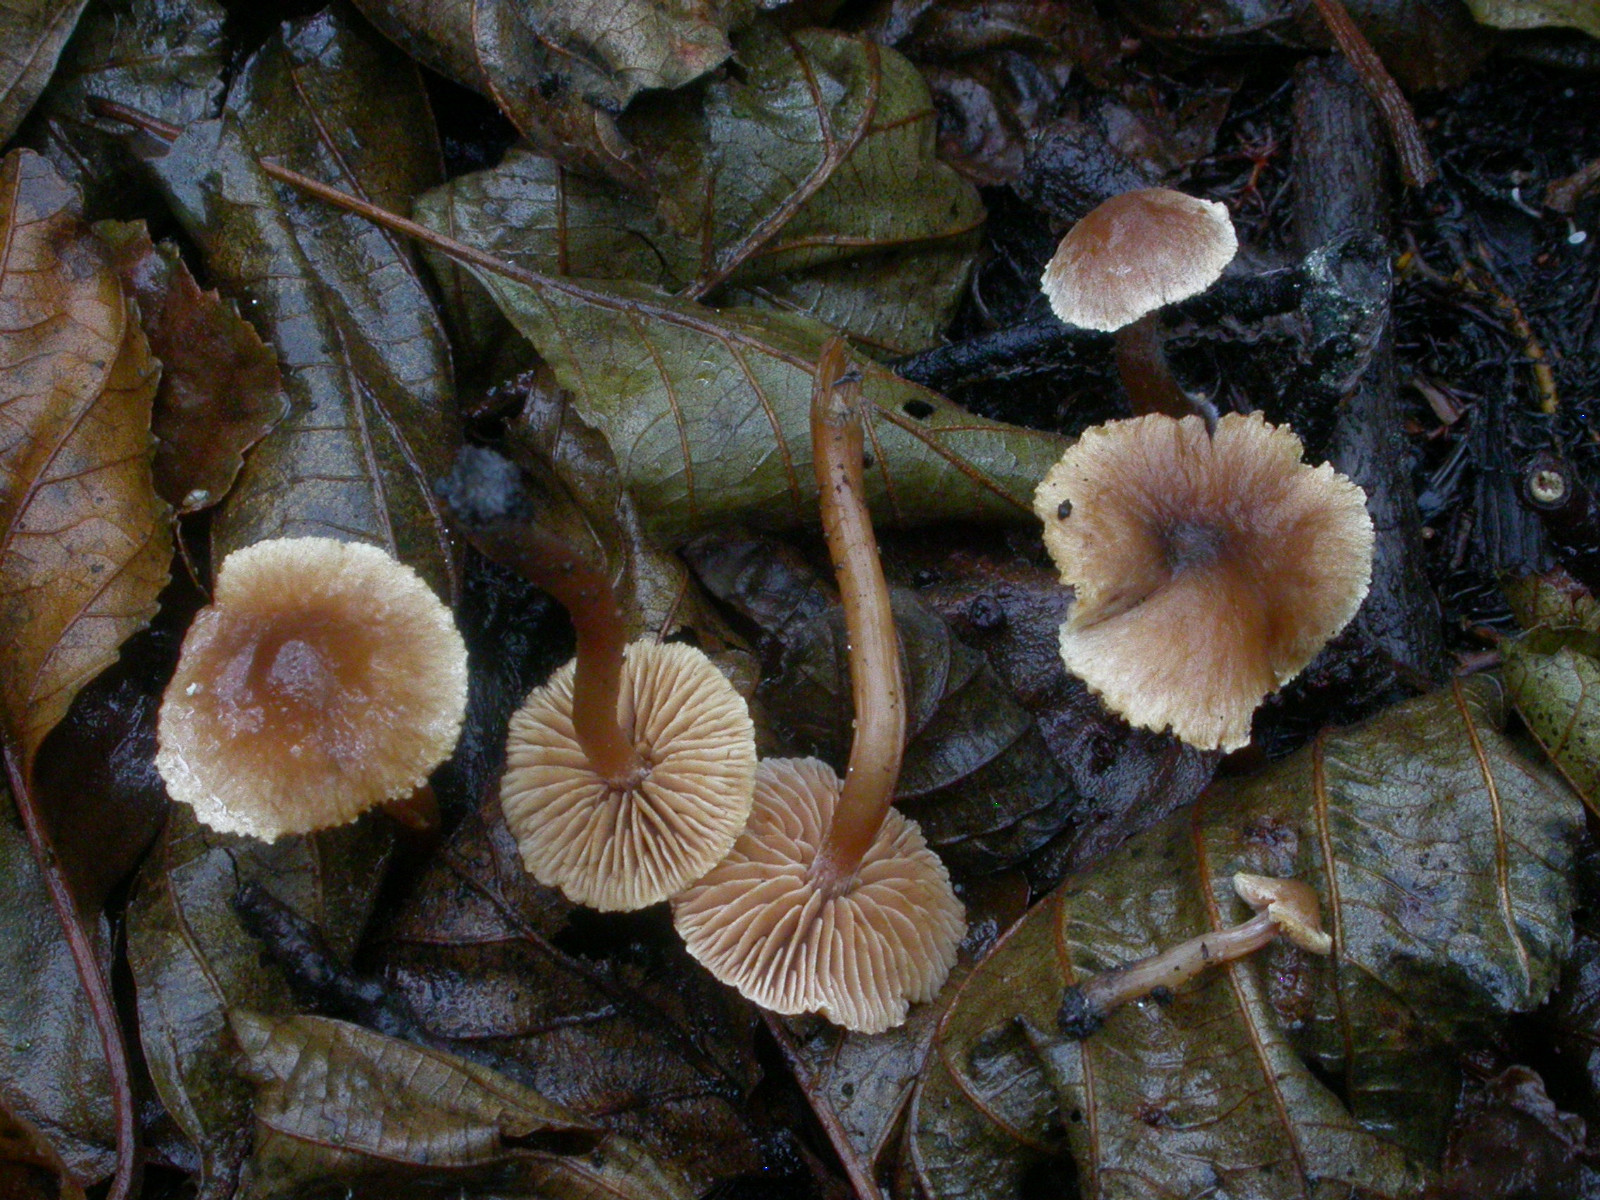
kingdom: Fungi
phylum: Basidiomycota
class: Agaricomycetes
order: Agaricales
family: Hymenogastraceae
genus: Naucoria
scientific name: Naucoria
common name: knaphat
